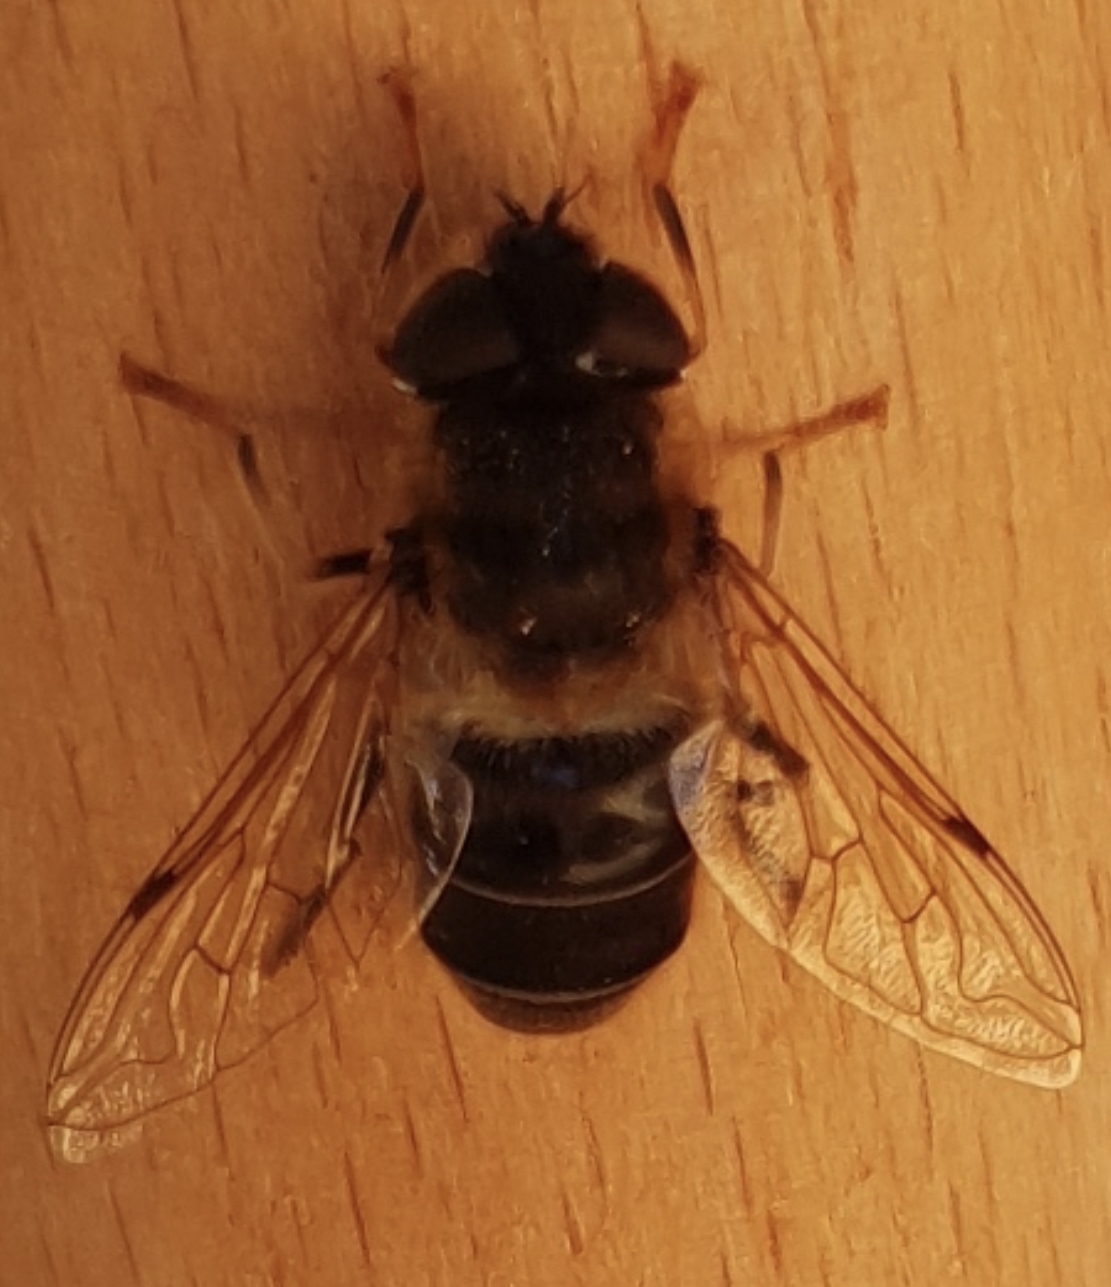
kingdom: Animalia
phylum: Arthropoda
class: Insecta
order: Diptera
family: Syrphidae
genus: Eristalis
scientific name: Eristalis pertinax
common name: Gulfodet dyndflue
